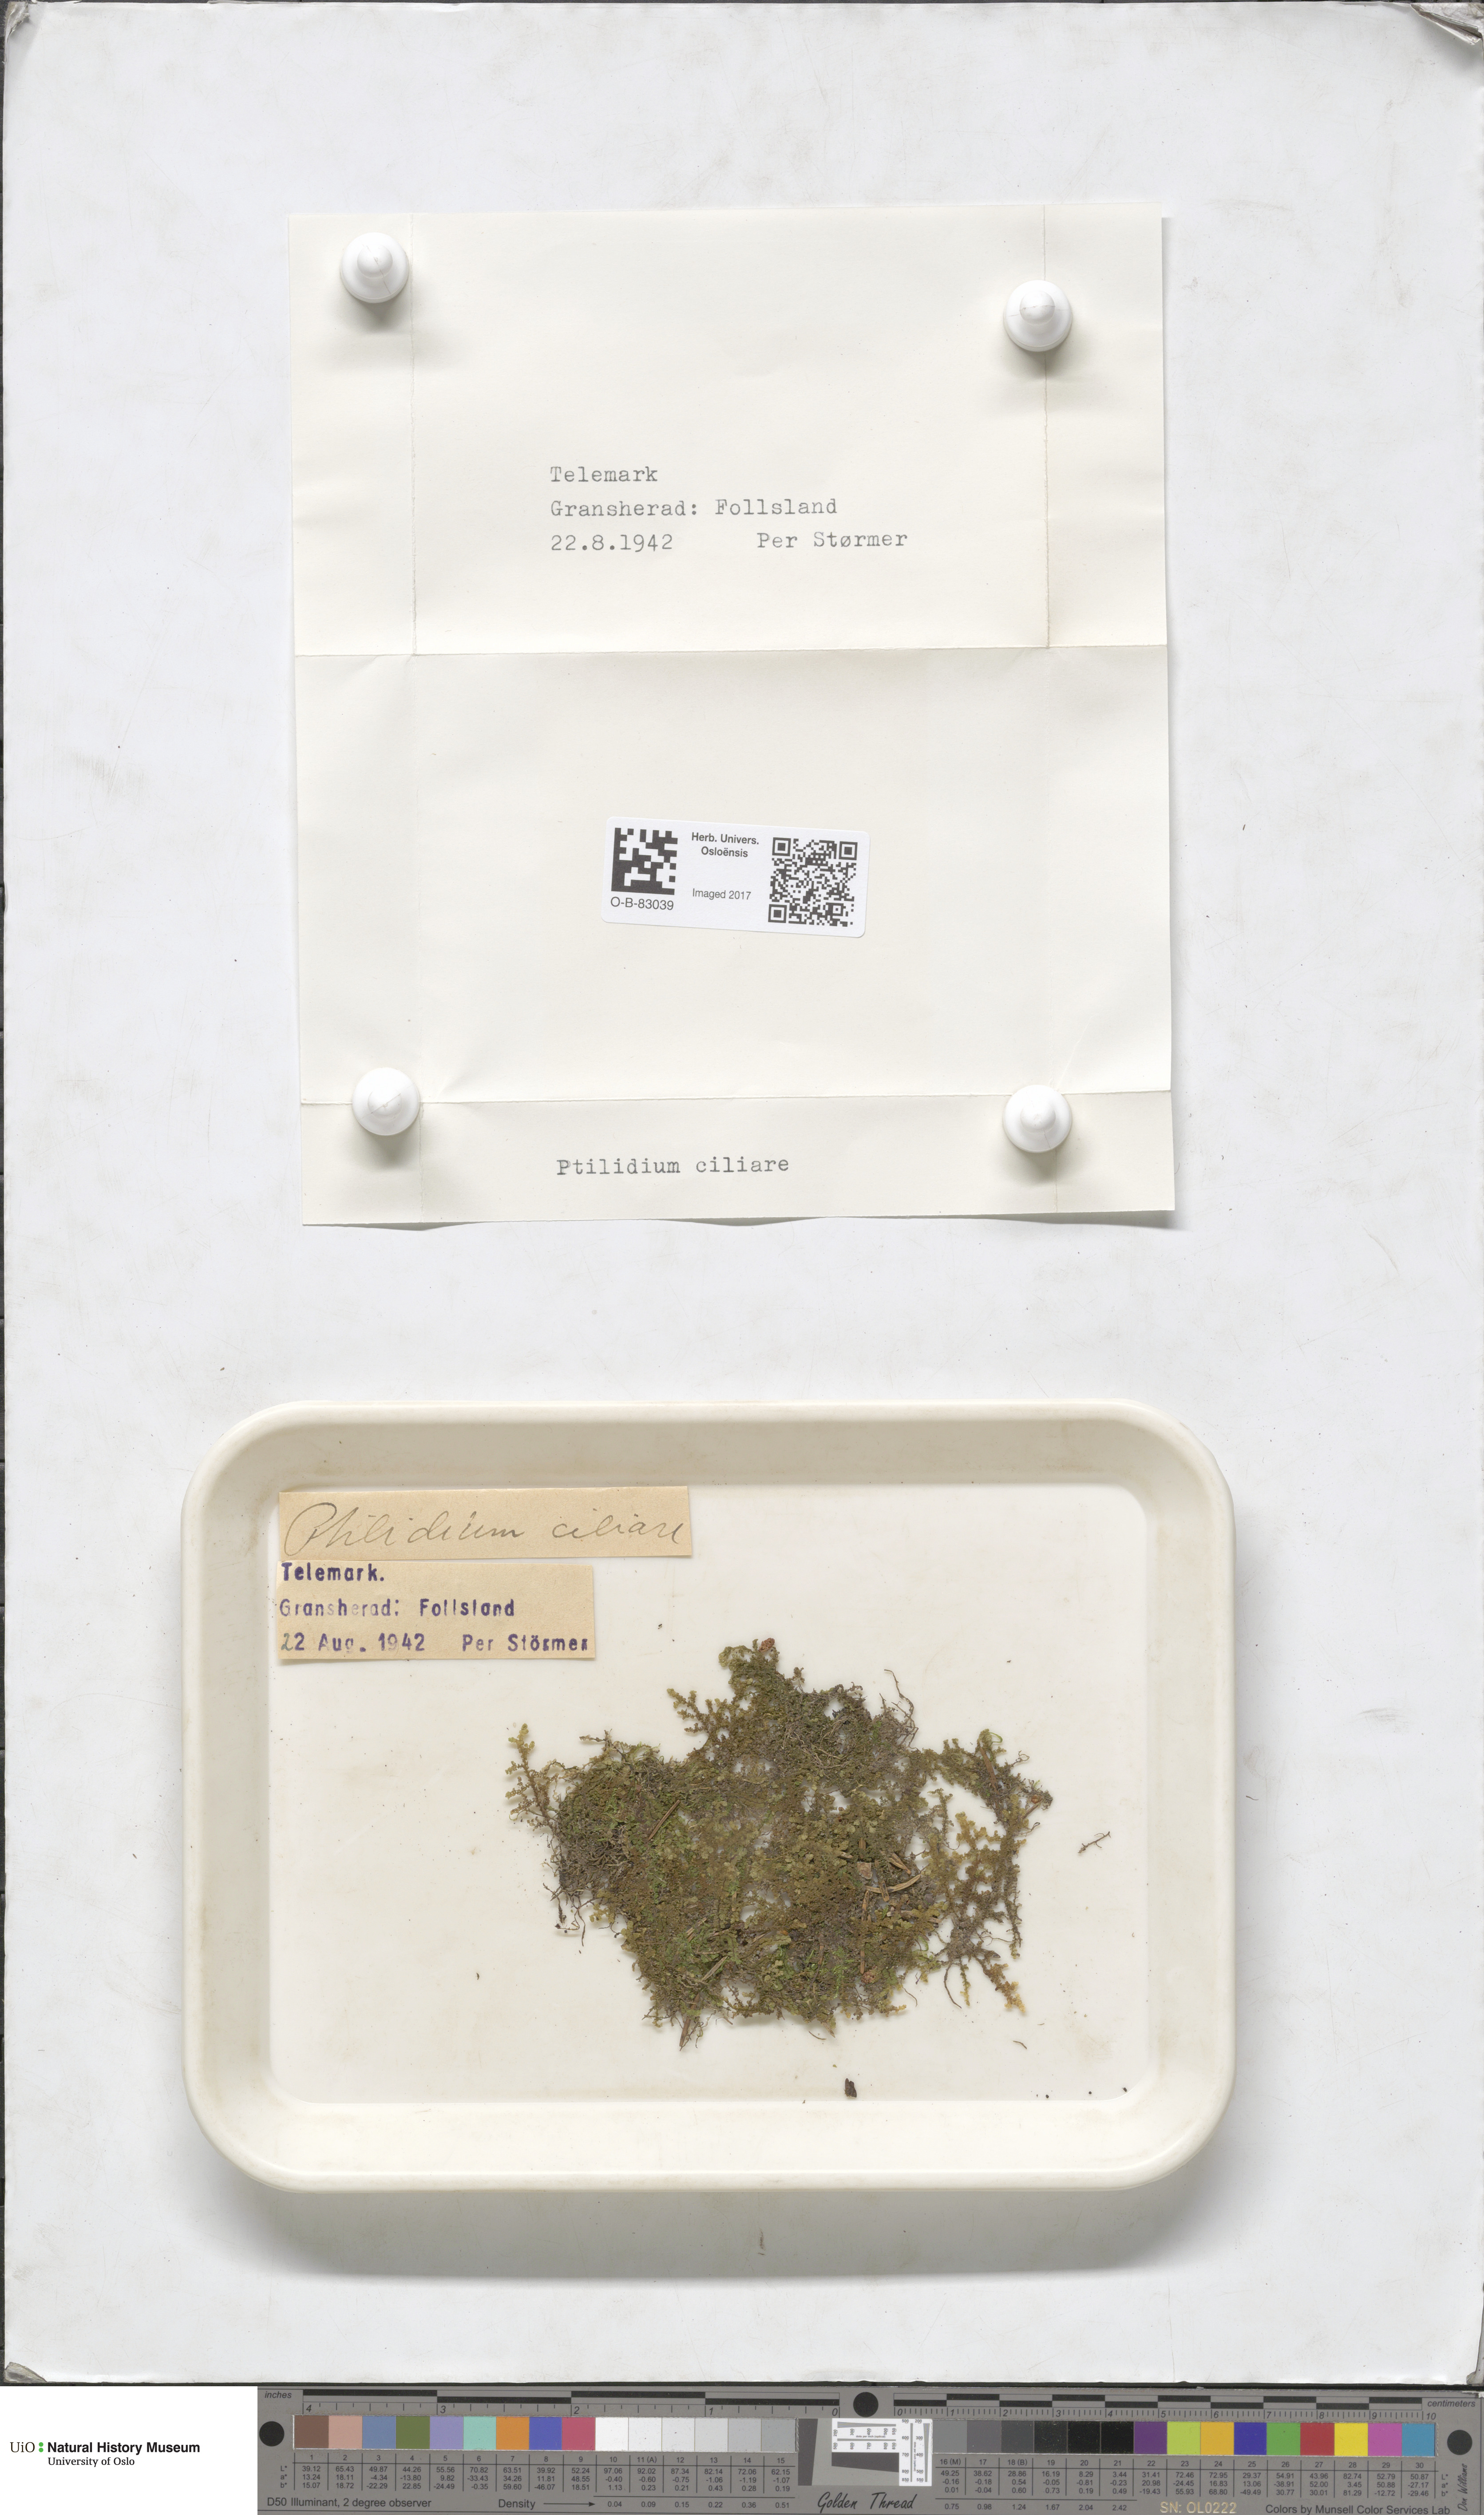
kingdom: Plantae
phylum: Marchantiophyta
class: Jungermanniopsida
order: Ptilidiales
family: Ptilidiaceae
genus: Ptilidium
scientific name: Ptilidium ciliare
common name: Ciliate fringewort
